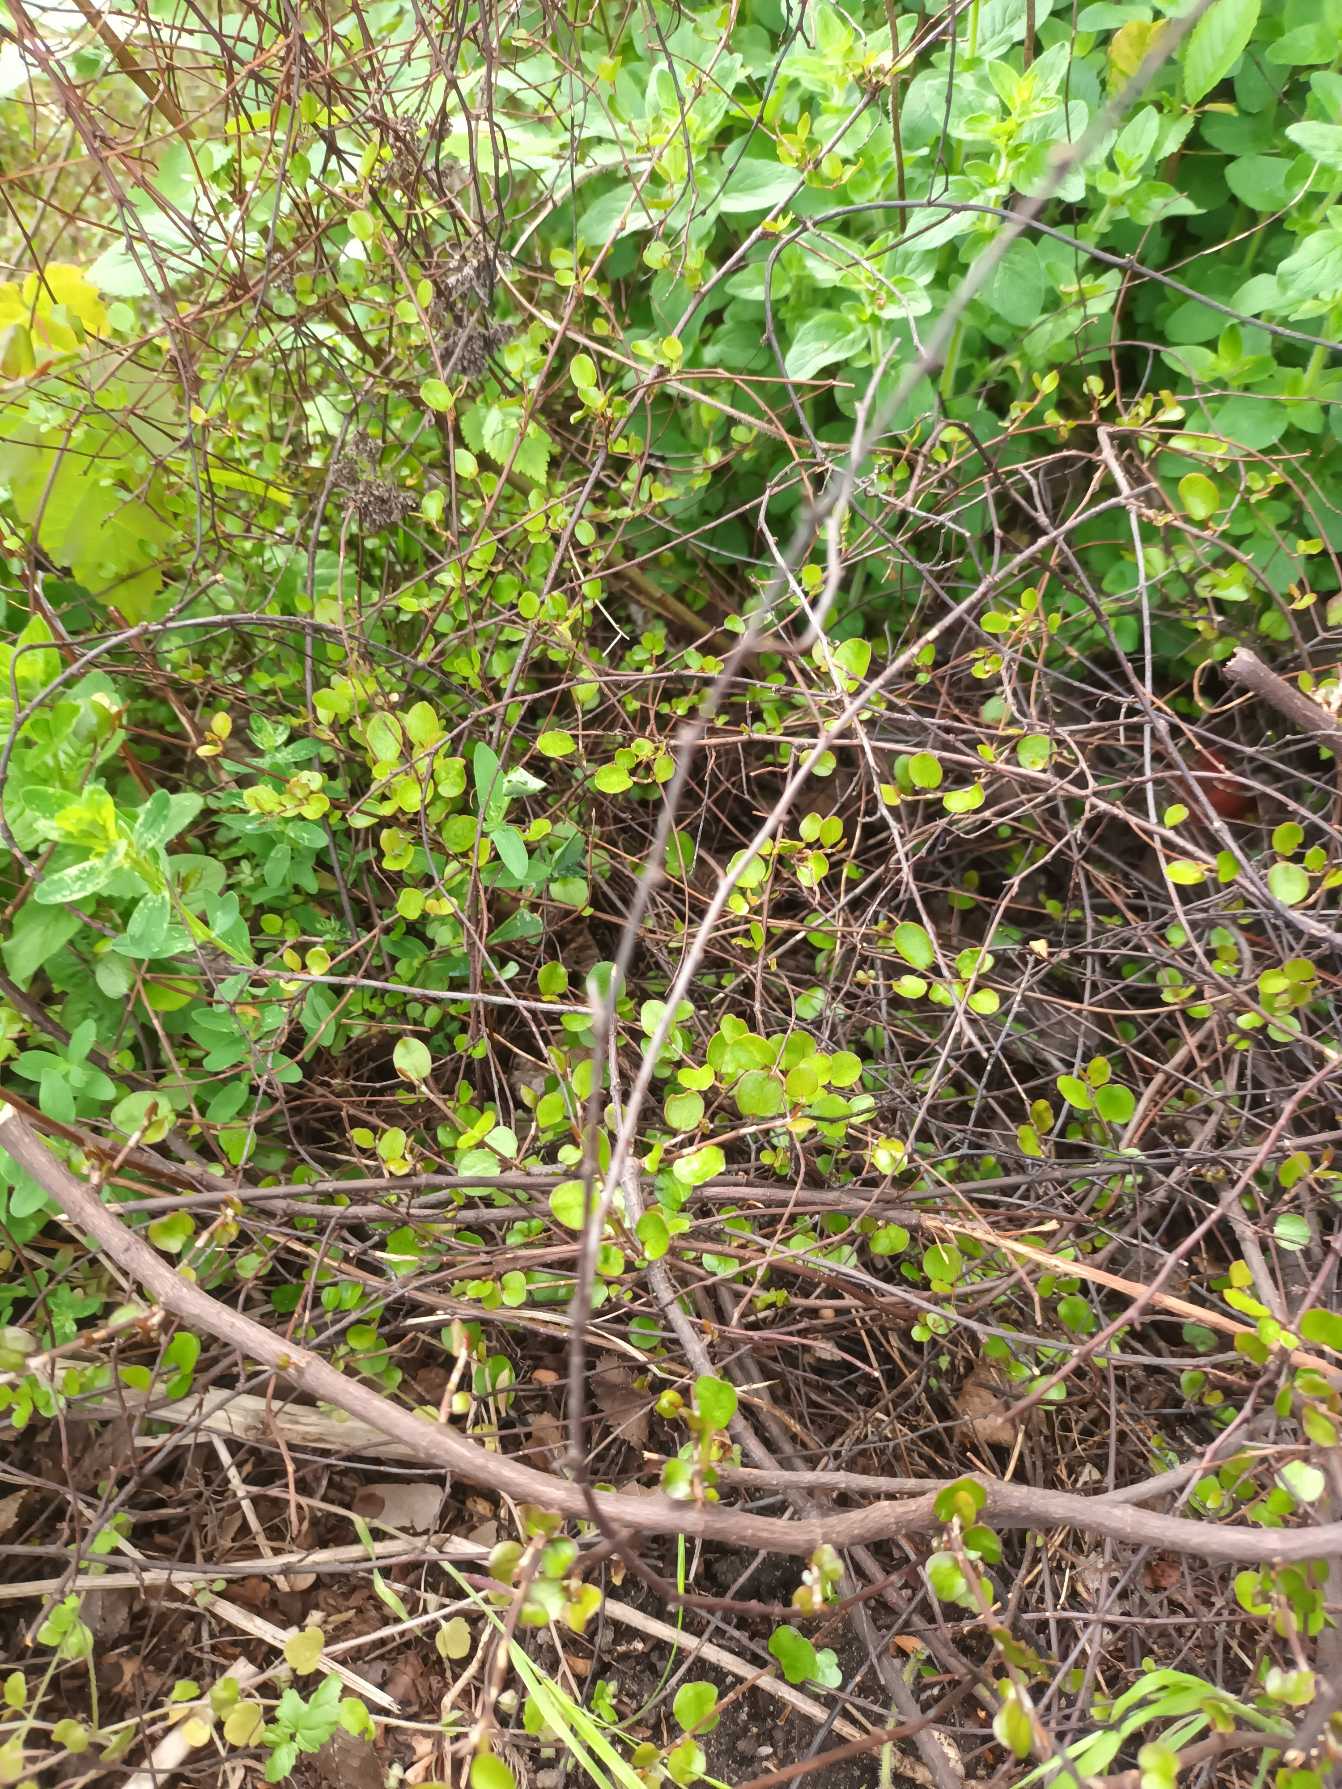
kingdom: Plantae
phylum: Tracheophyta
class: Magnoliopsida
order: Caryophyllales
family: Polygonaceae
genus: Muehlenbeckia
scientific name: Muehlenbeckia axillaris
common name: Prikker i luften
